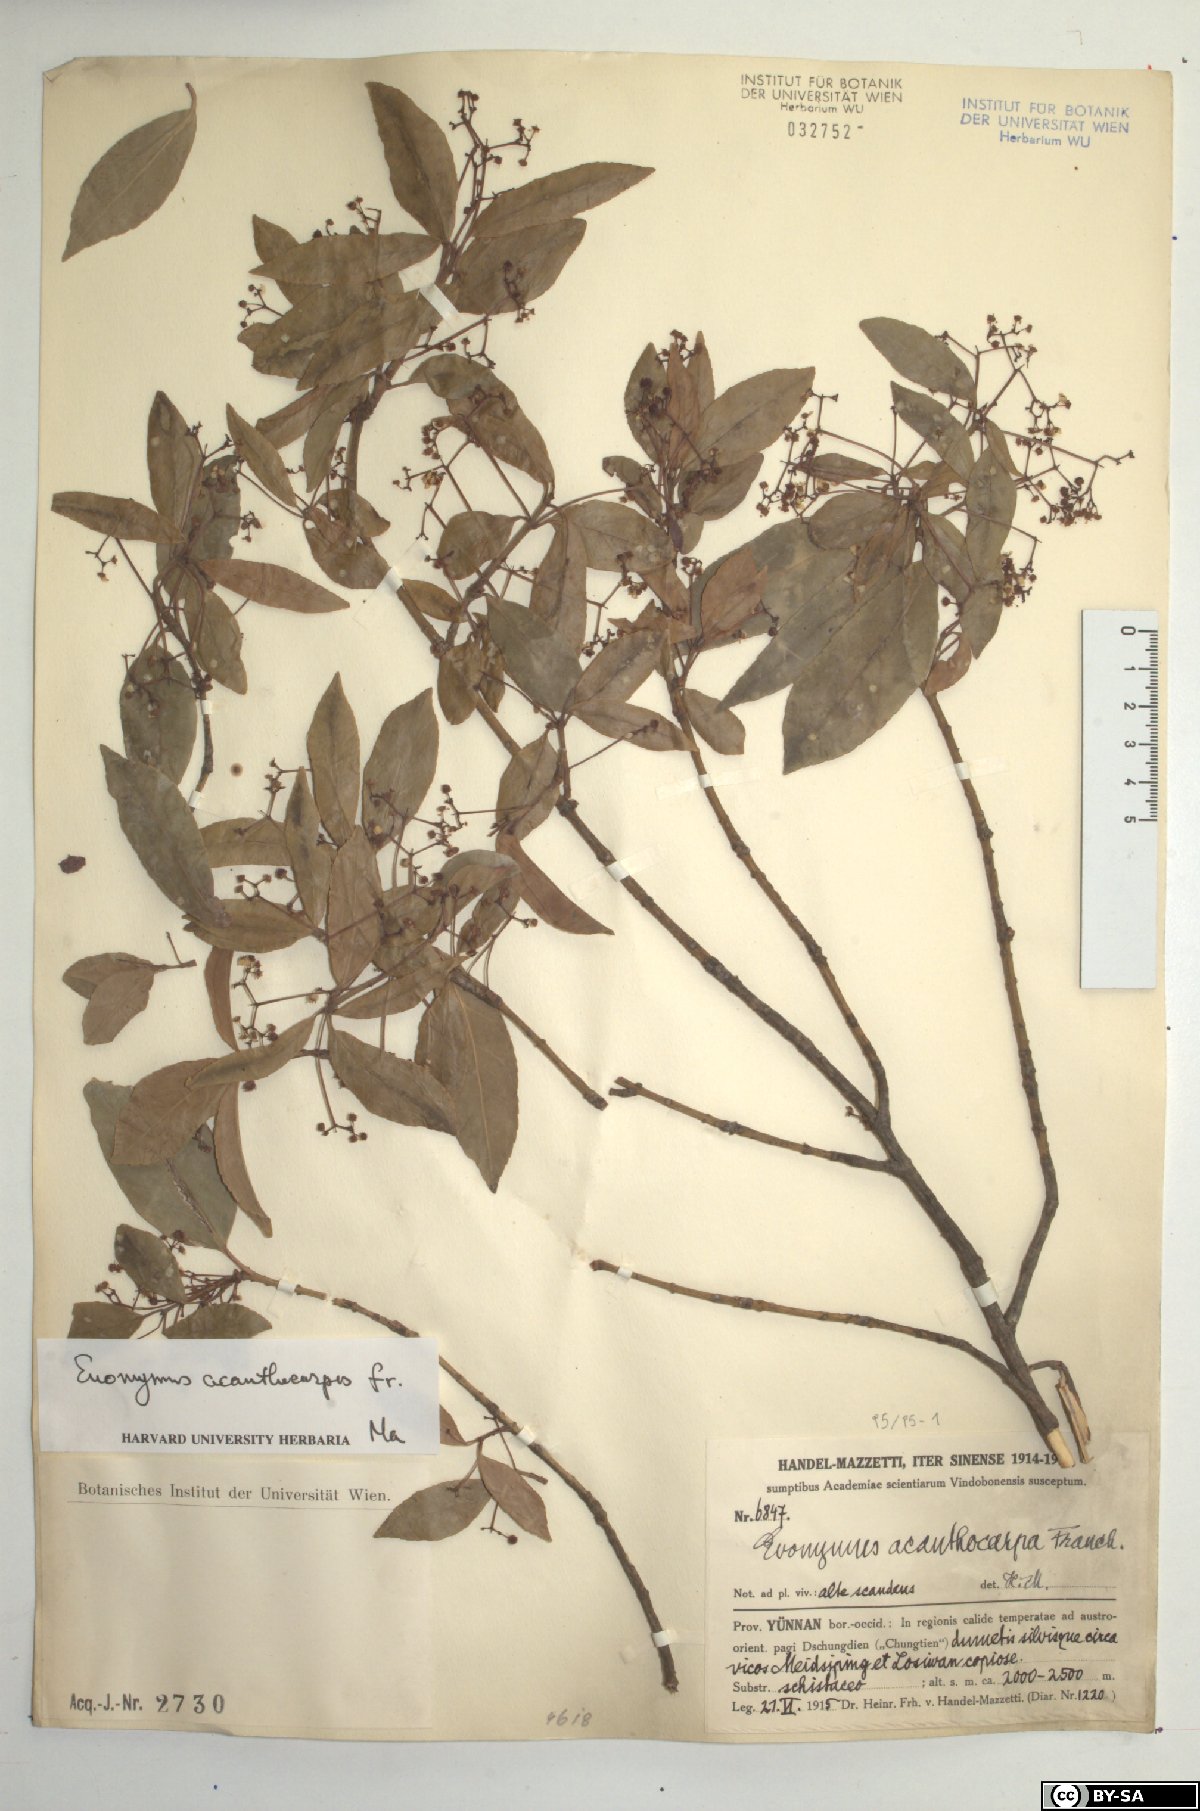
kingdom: Plantae
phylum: Tracheophyta
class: Magnoliopsida
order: Celastrales
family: Celastraceae
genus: Euonymus
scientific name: Euonymus acanthocarpus
